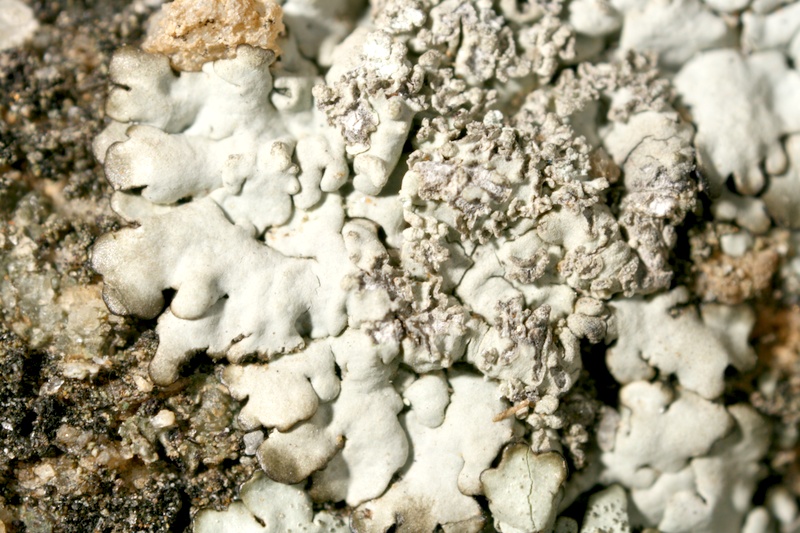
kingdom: Fungi
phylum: Ascomycota
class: Lecanoromycetes
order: Lecanorales
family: Parmeliaceae
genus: Paraparmelia
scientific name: Paraparmelia
